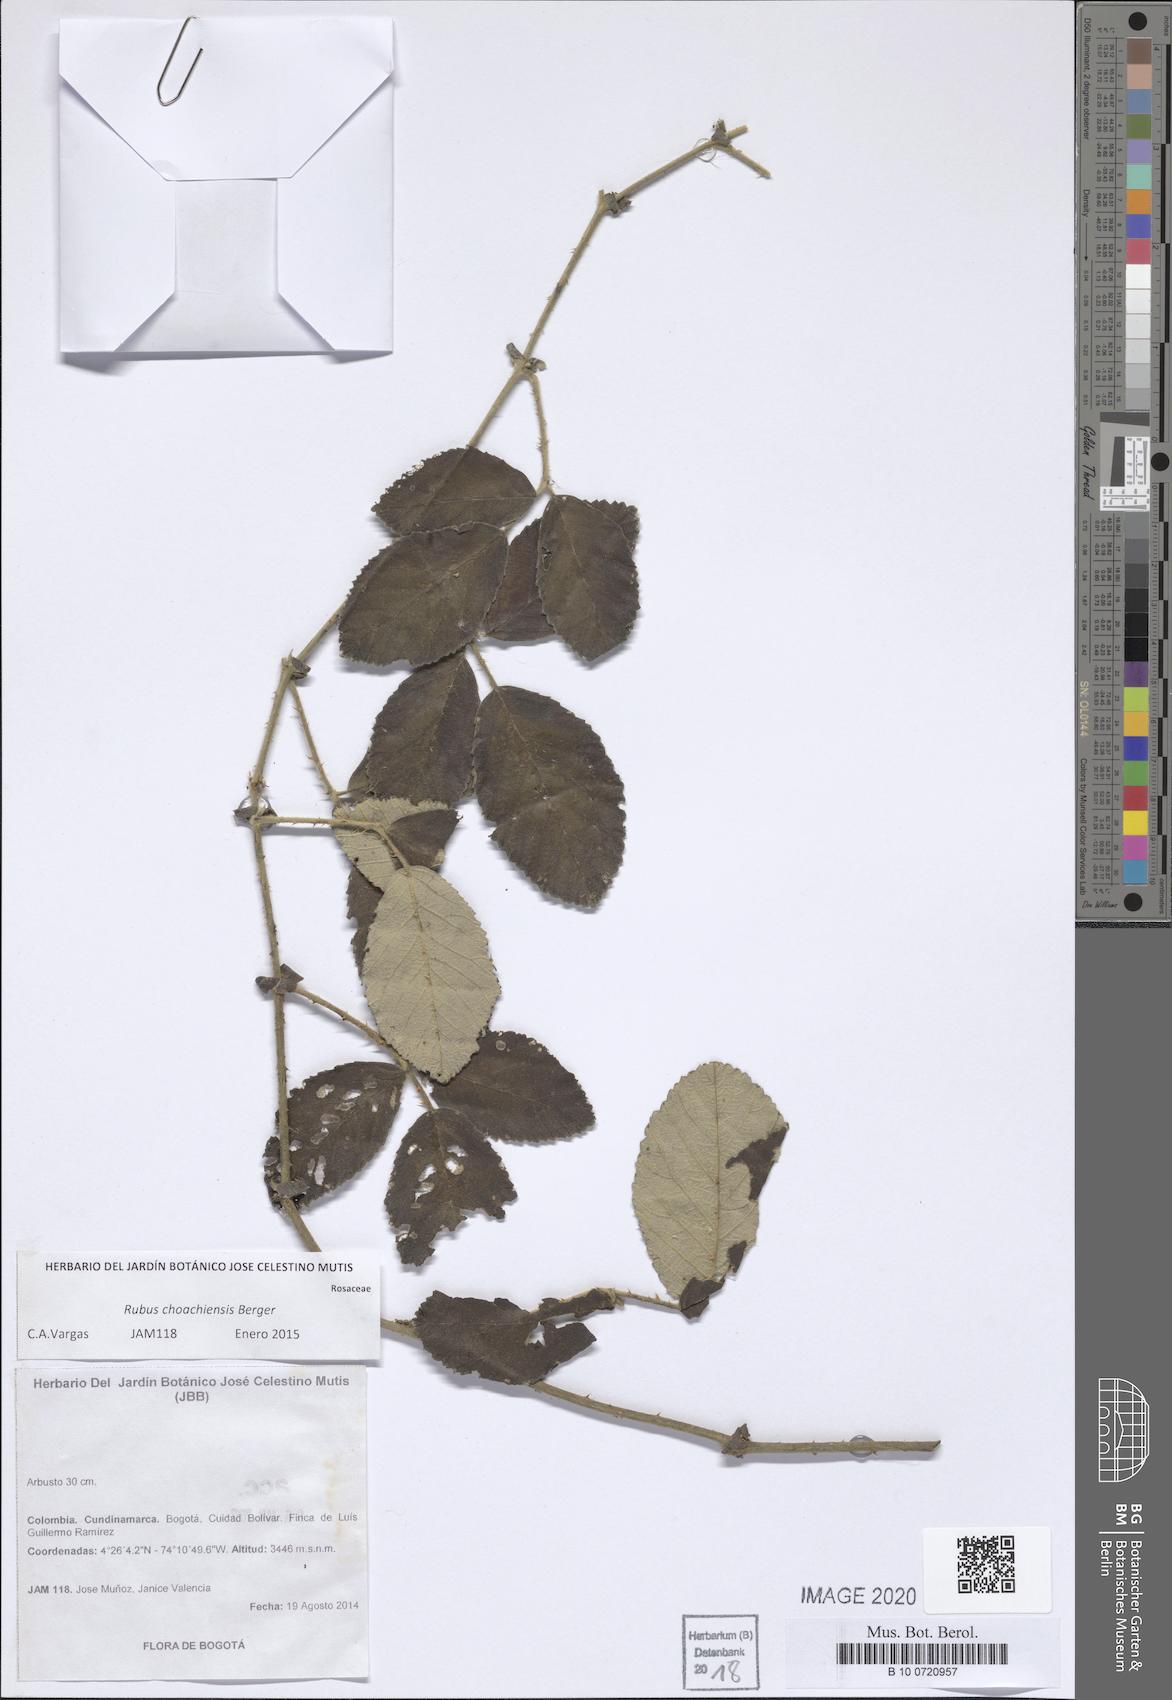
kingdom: Plantae
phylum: Tracheophyta
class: Magnoliopsida
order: Rosales
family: Rosaceae
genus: Rubus
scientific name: Rubus choachiensis
